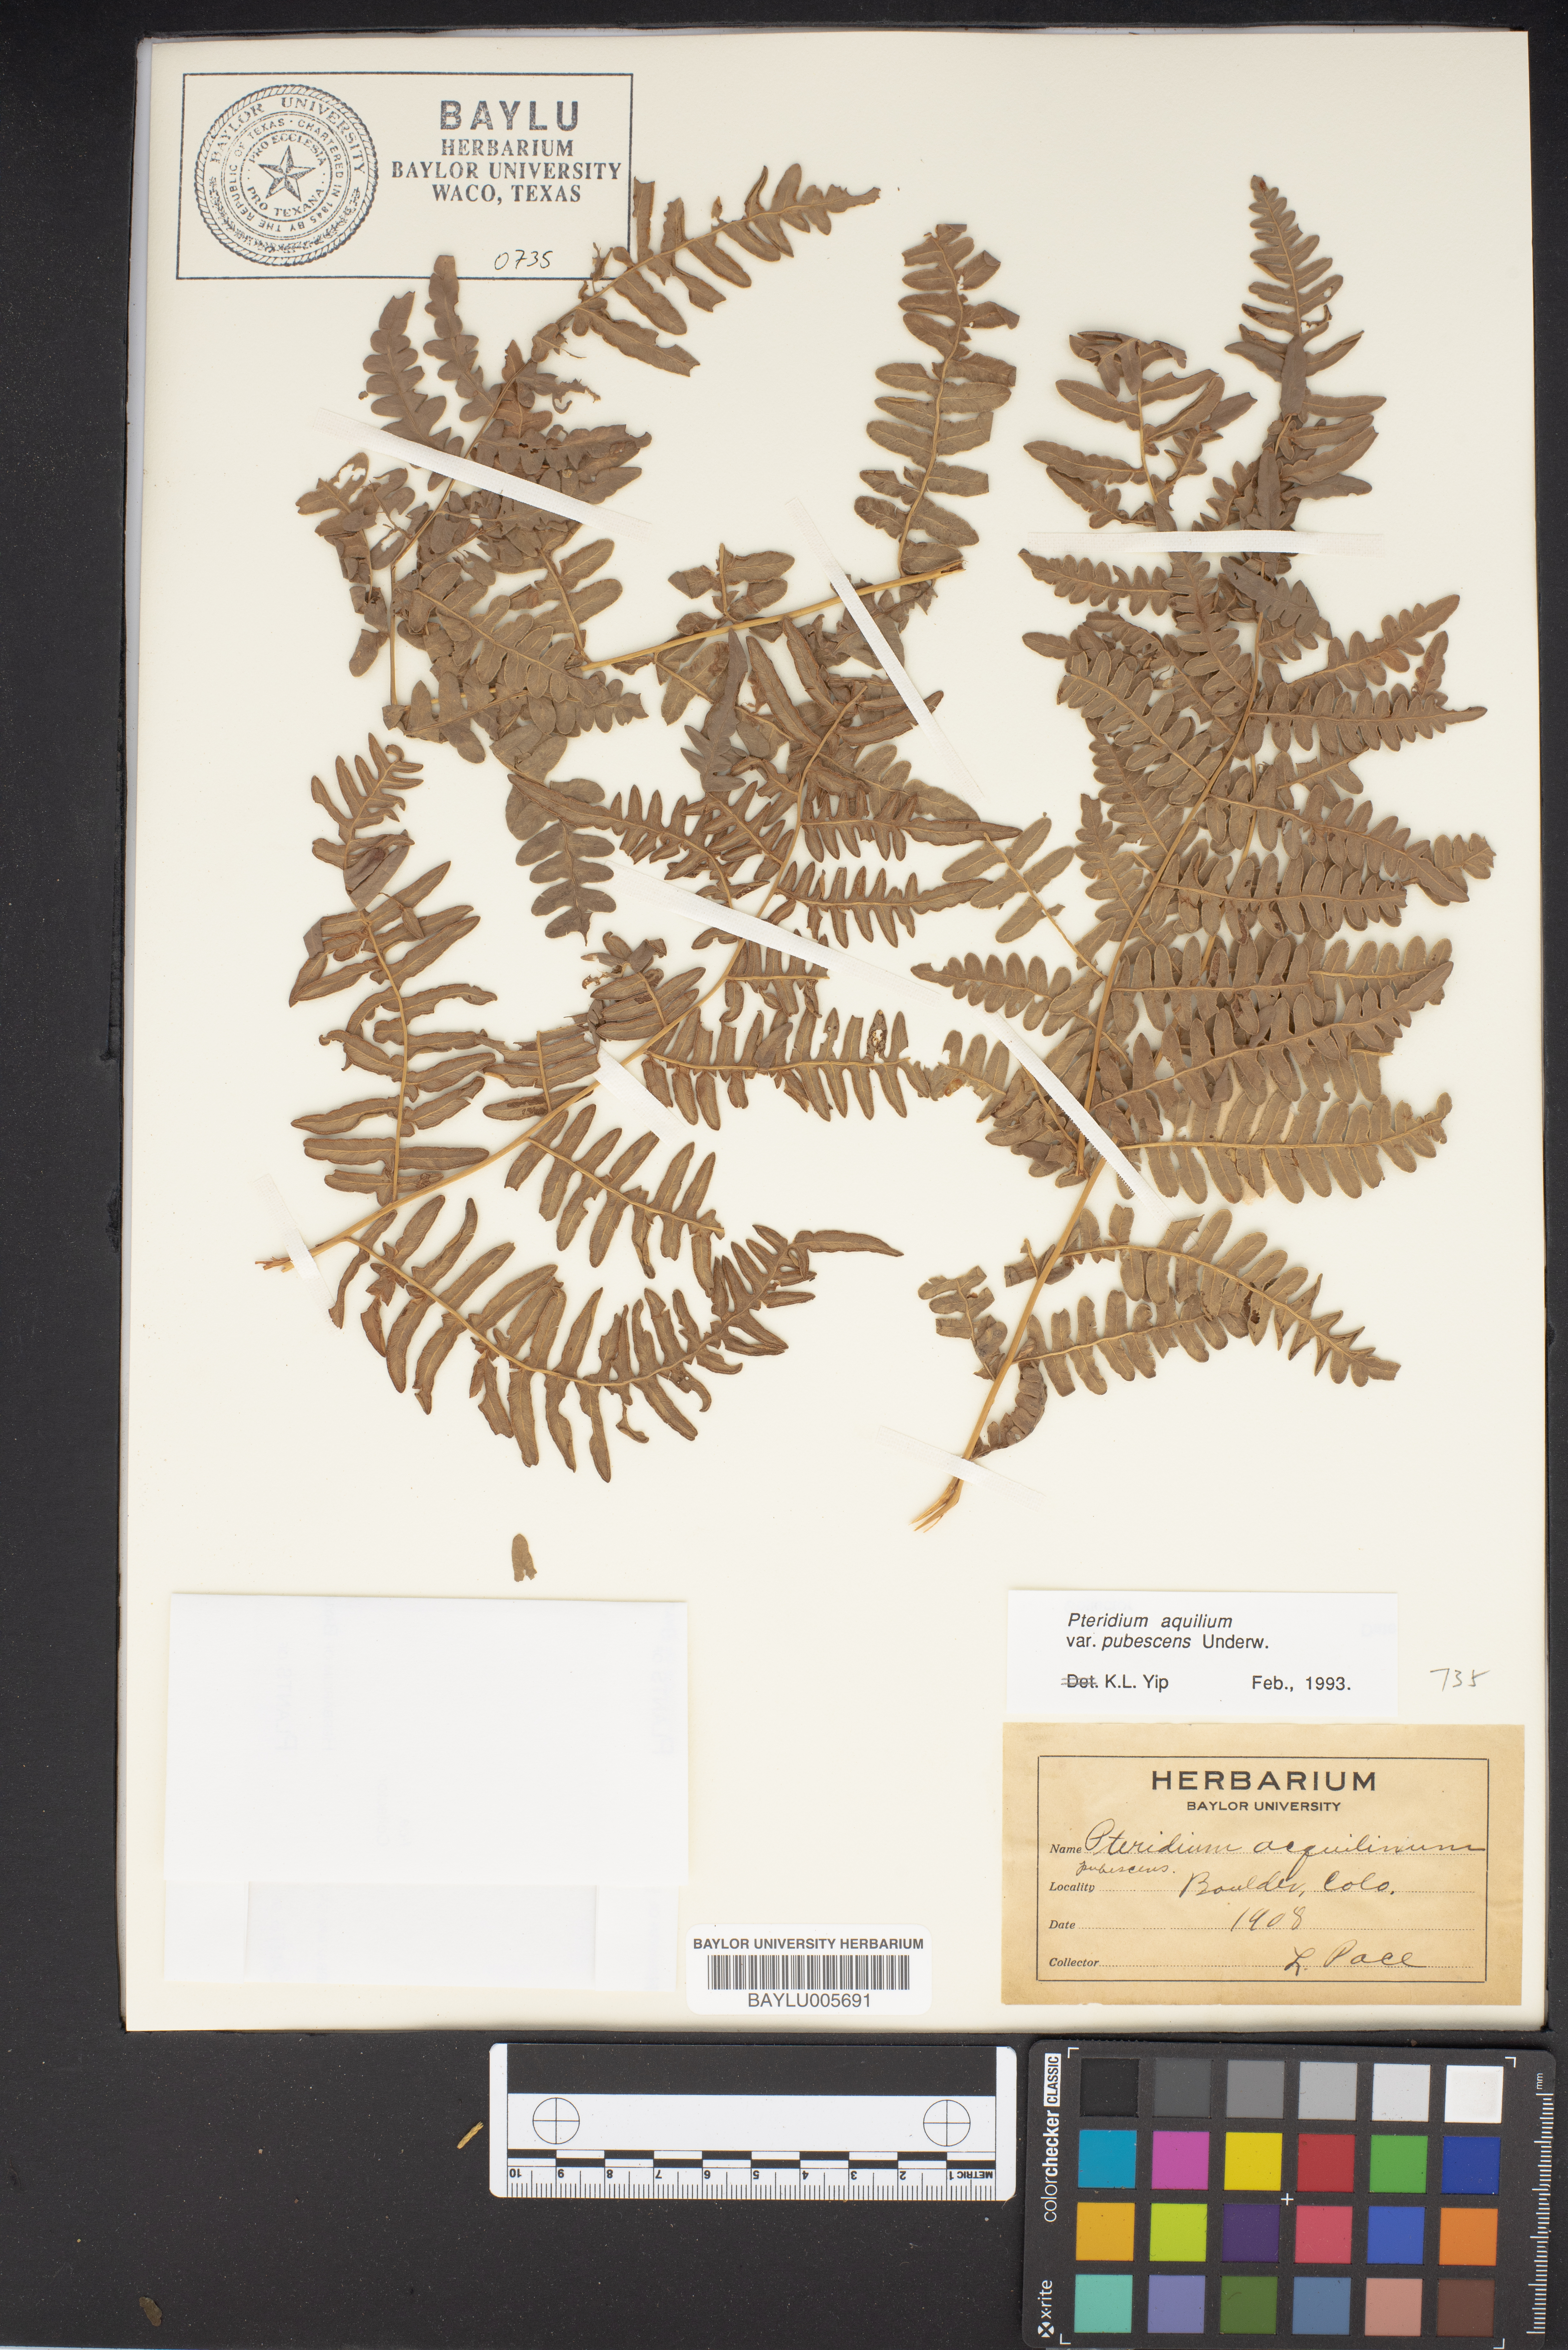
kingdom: Plantae
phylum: Tracheophyta
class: Polypodiopsida
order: Polypodiales
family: Dennstaedtiaceae
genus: Pteridium
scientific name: Pteridium aquilinum
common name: Bracken
